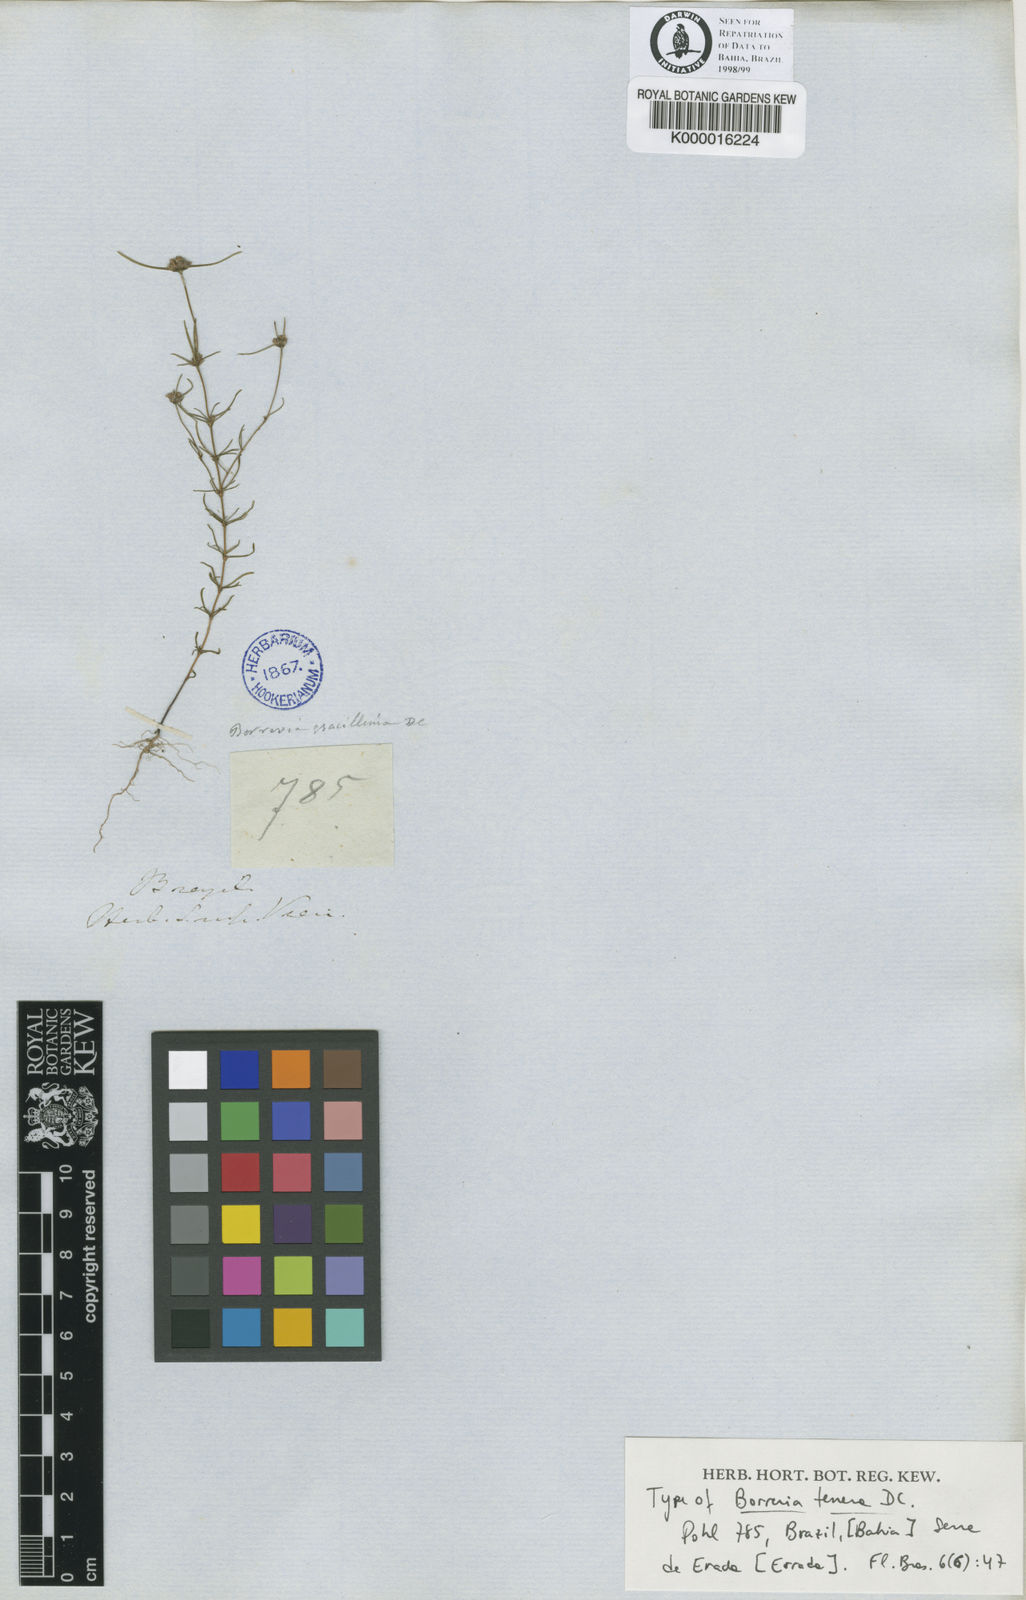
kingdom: Plantae
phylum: Tracheophyta
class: Magnoliopsida
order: Gentianales
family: Rubiaceae
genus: Spermacoce
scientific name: Spermacoce ocymoides
